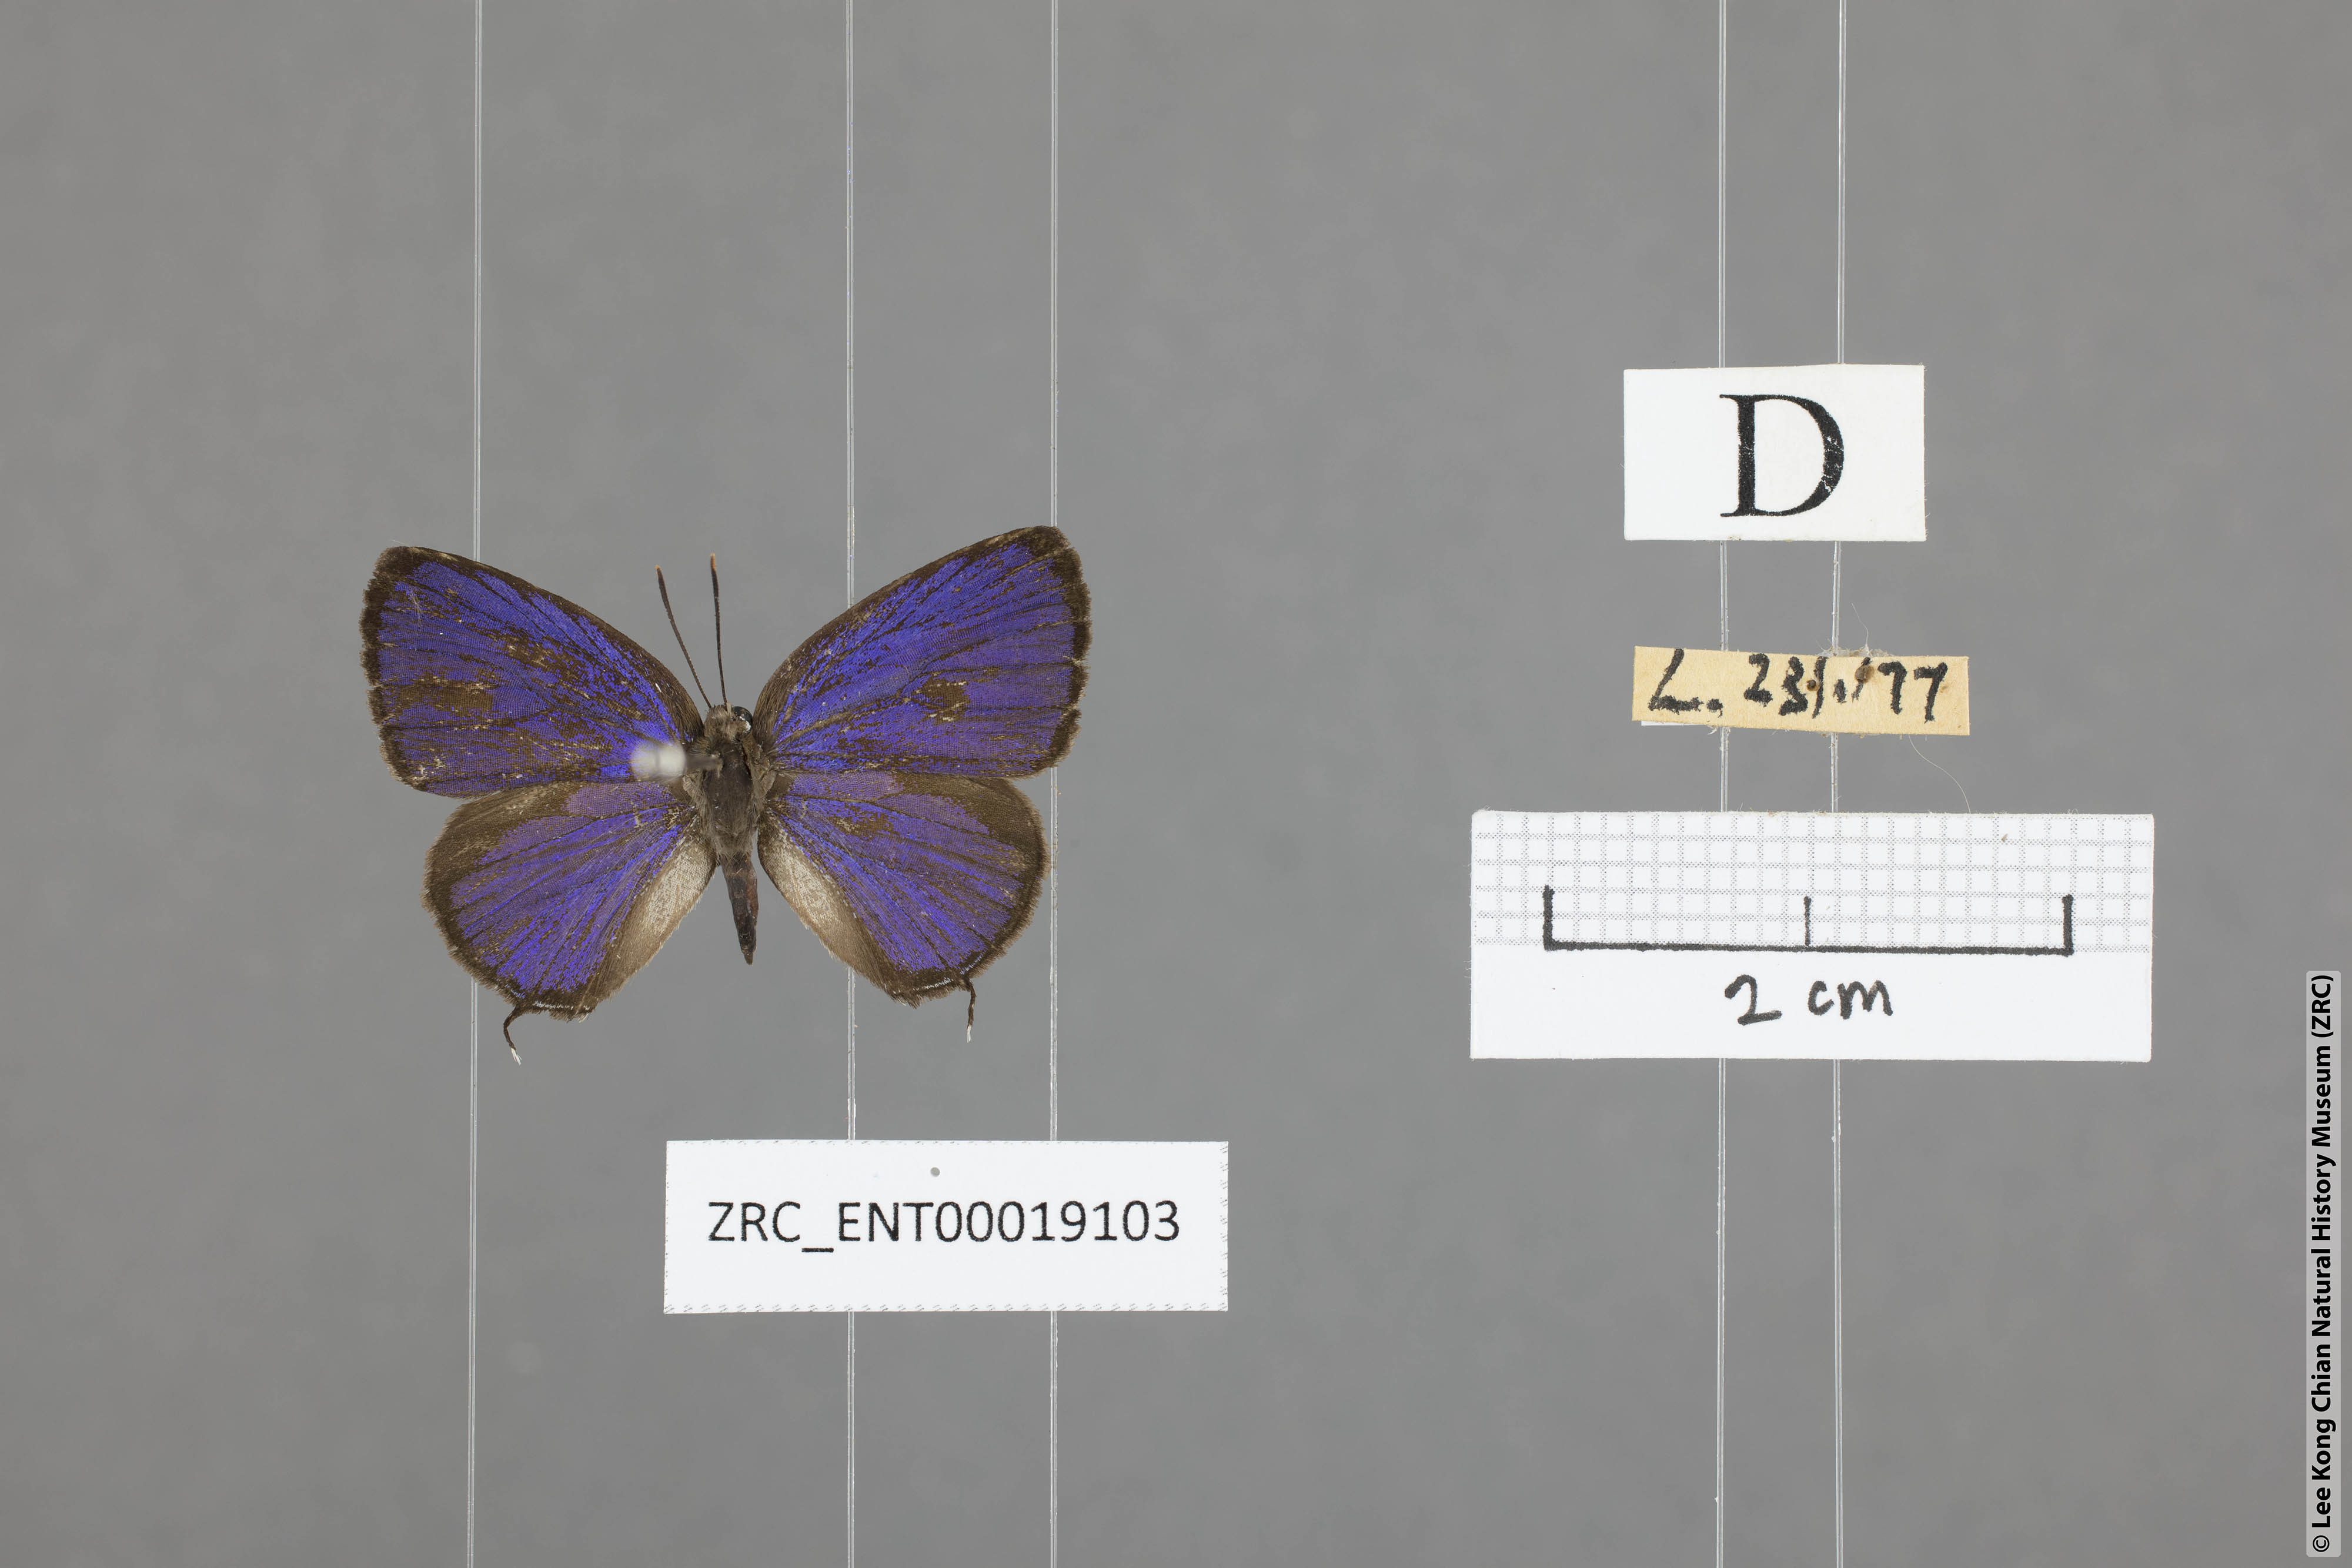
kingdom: Animalia
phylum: Arthropoda
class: Insecta
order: Lepidoptera
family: Lycaenidae
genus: Arhopala
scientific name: Arhopala ammon
